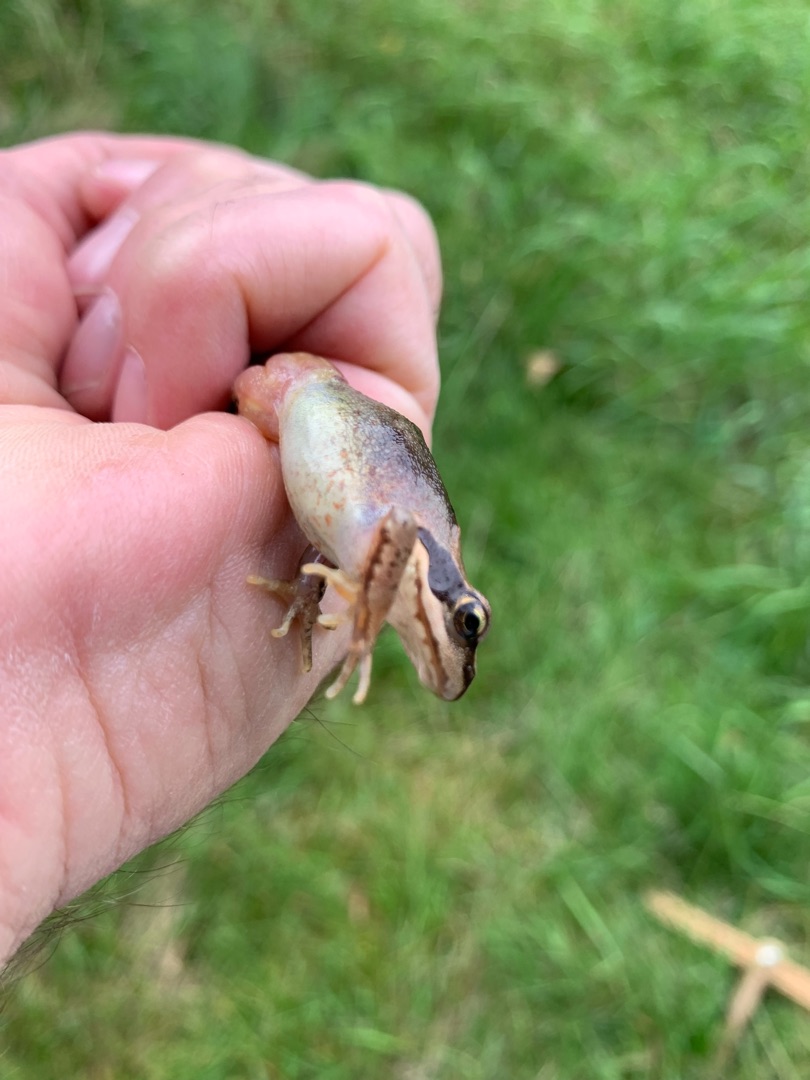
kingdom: Animalia
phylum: Chordata
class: Amphibia
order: Anura
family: Ranidae
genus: Rana
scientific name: Rana temporaria
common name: Butsnudet frø
